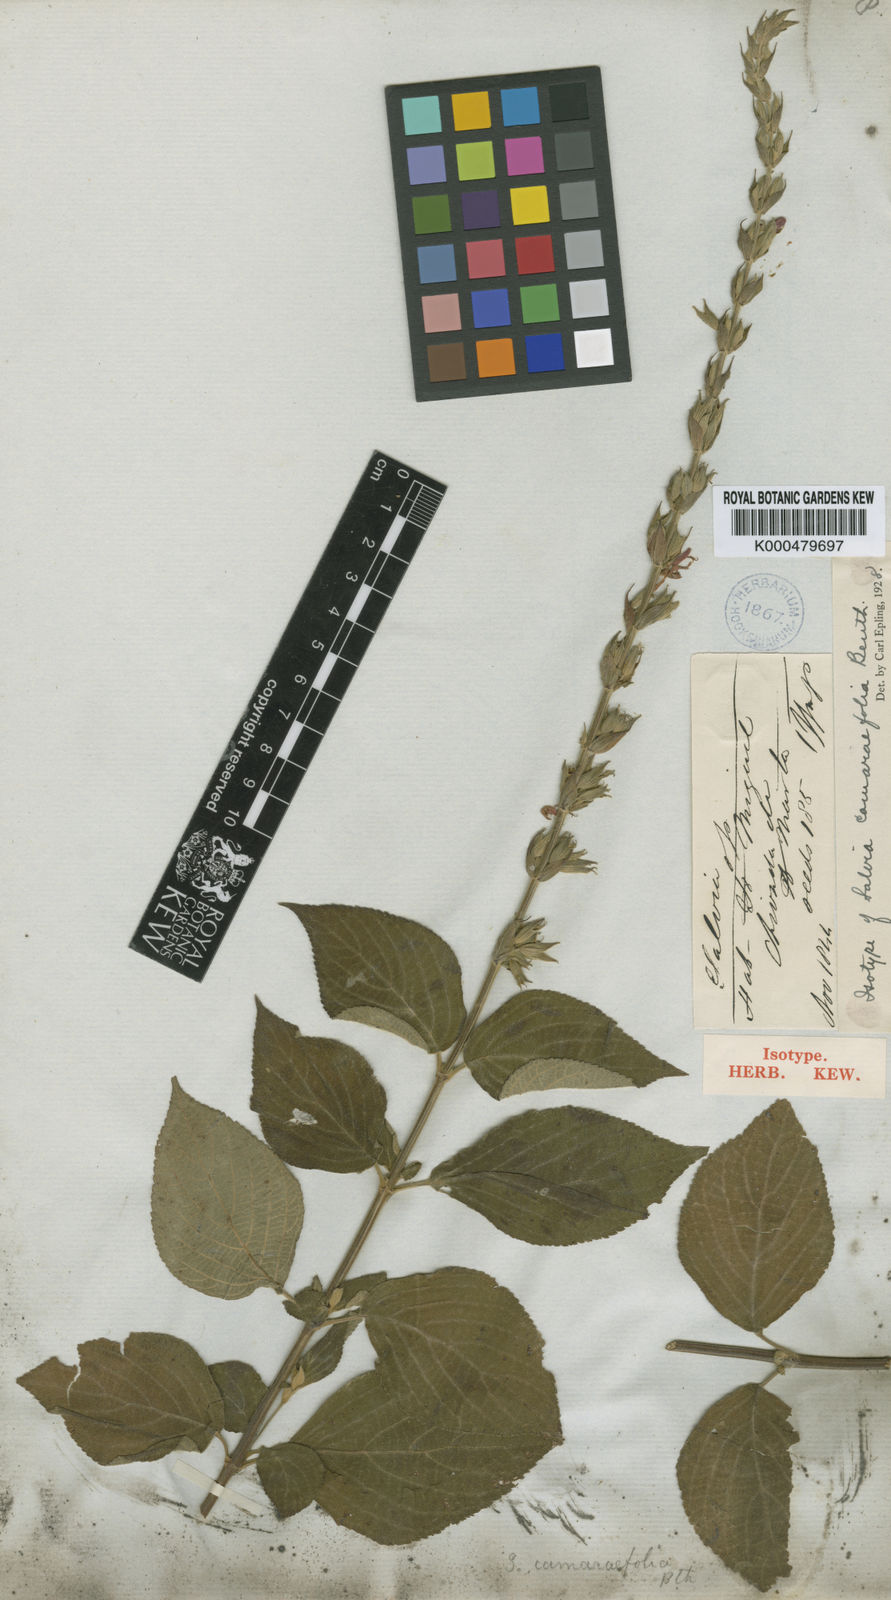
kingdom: Plantae
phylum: Tracheophyta
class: Magnoliopsida
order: Lamiales
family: Lamiaceae
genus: Salvia
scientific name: Salvia camarifolia
